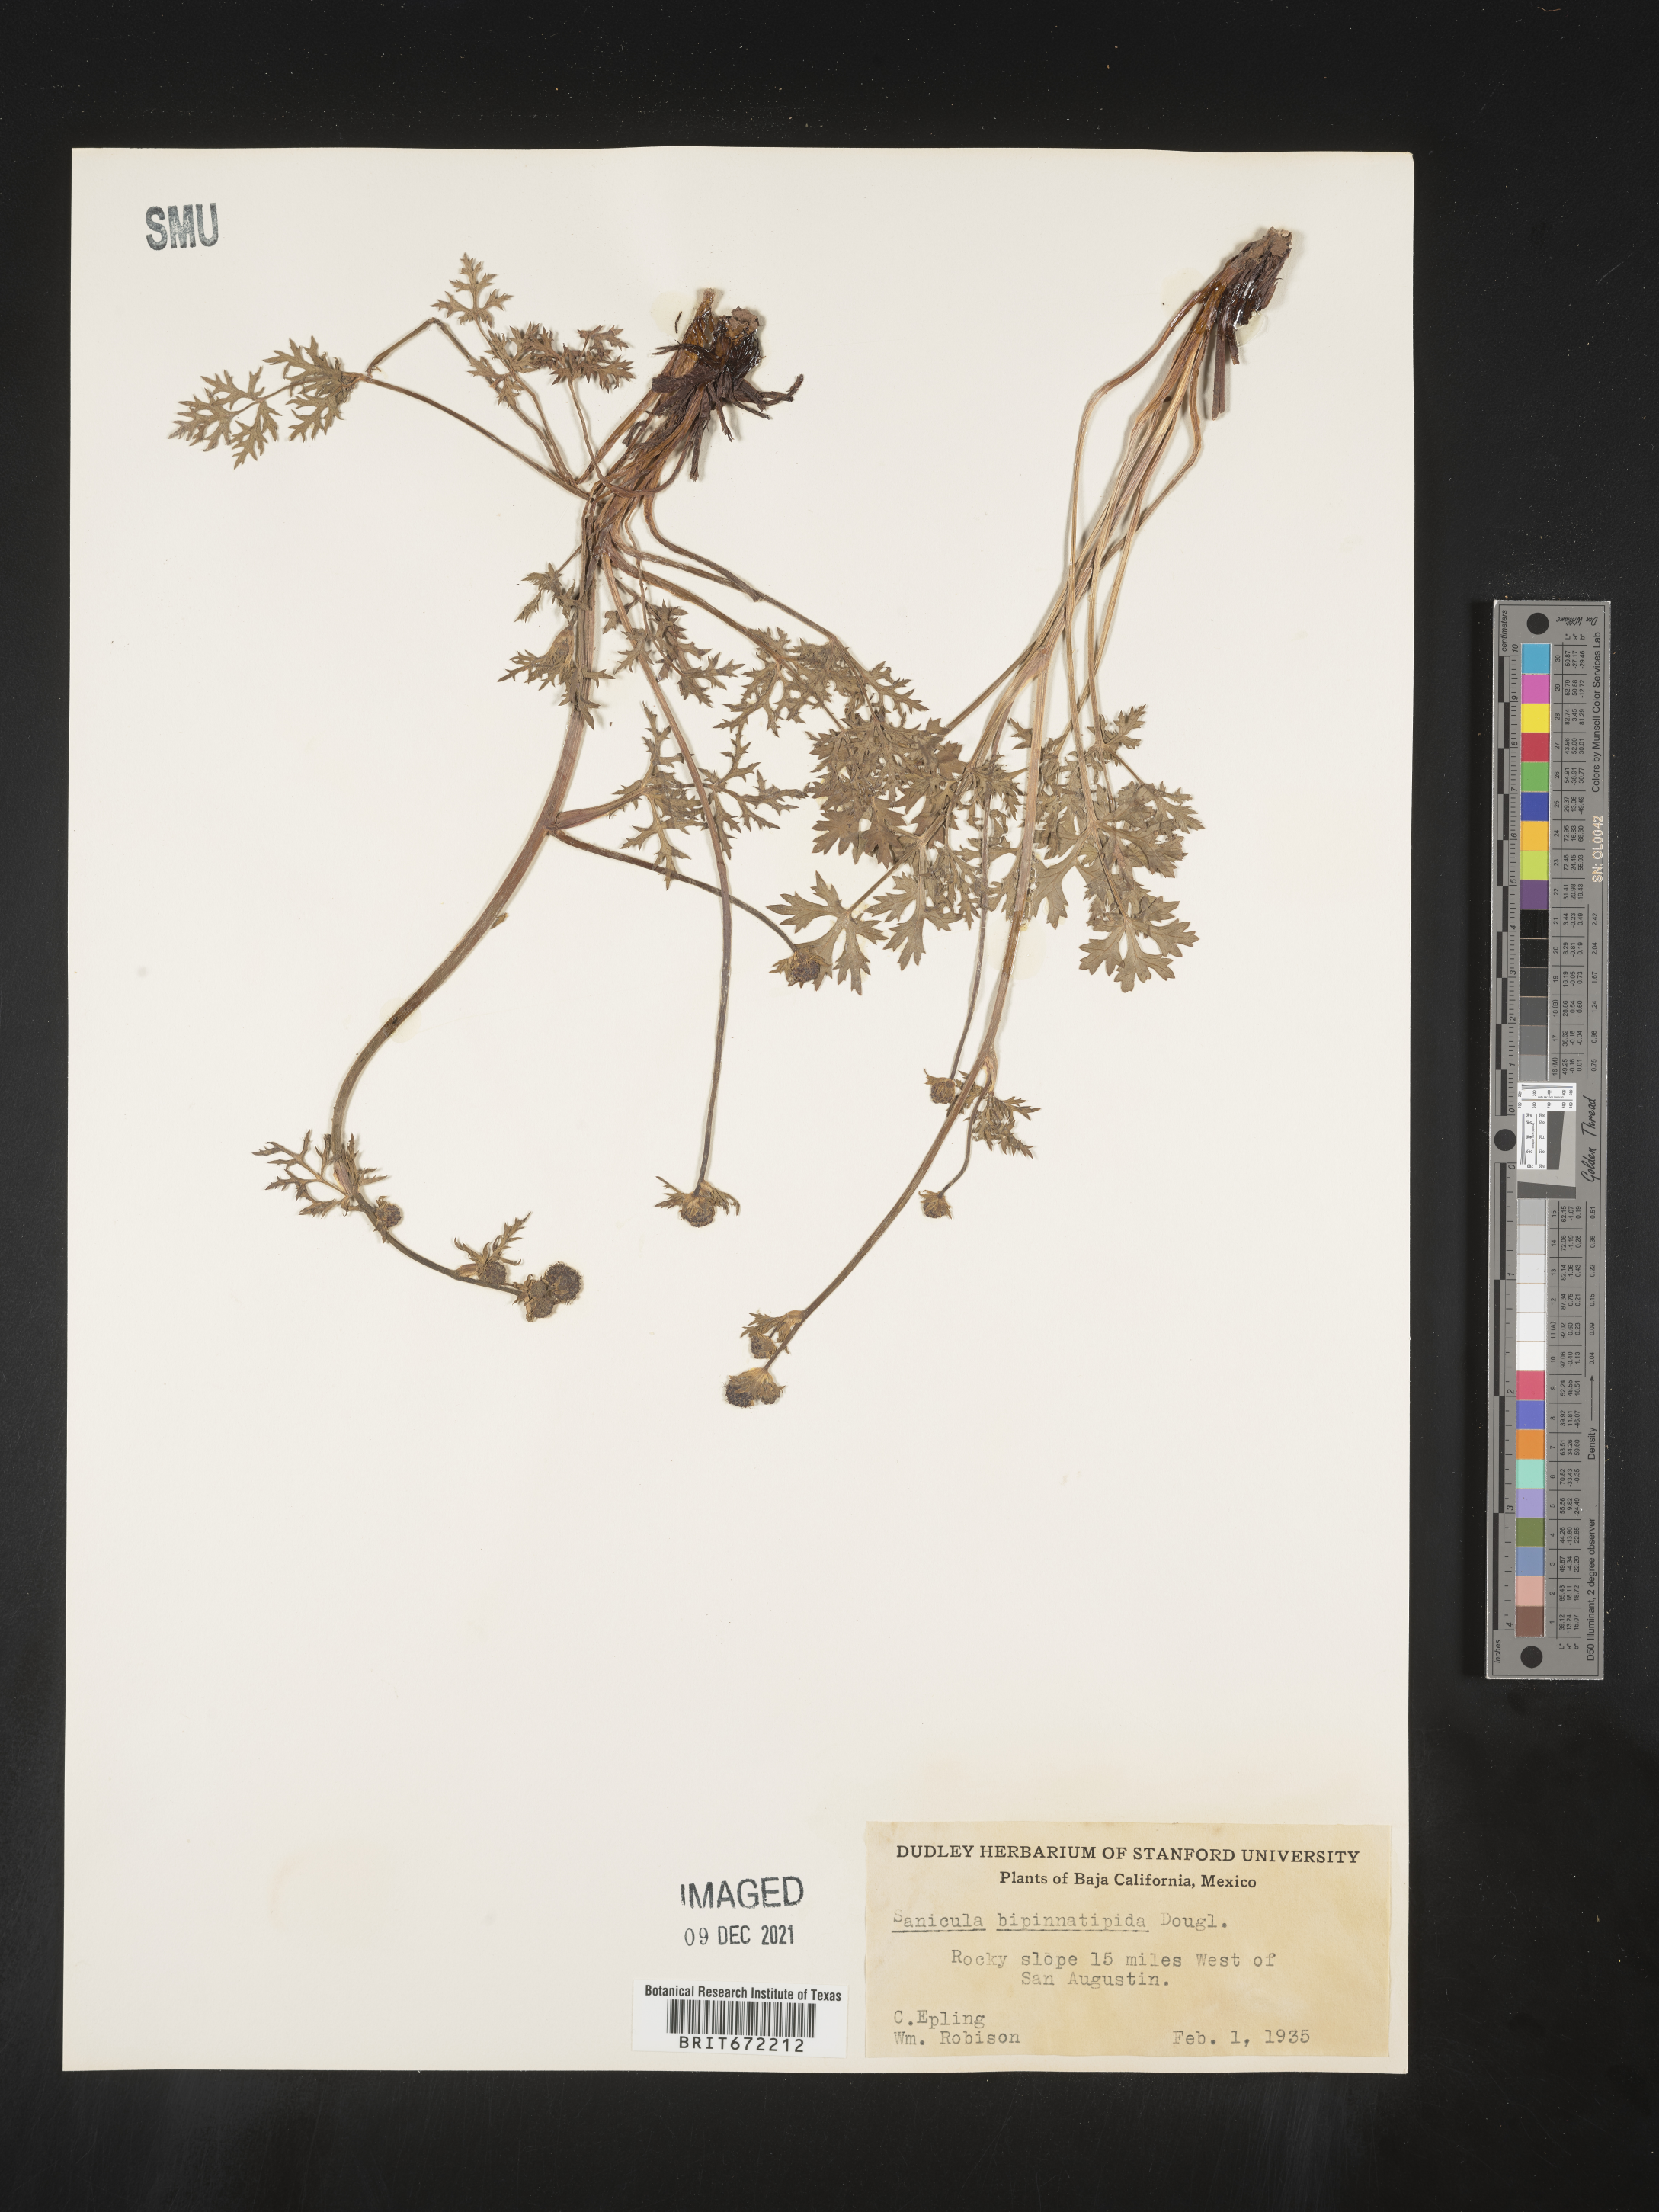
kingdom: Plantae
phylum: Tracheophyta
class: Magnoliopsida
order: Apiales
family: Apiaceae
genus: Sanicula
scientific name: Sanicula
